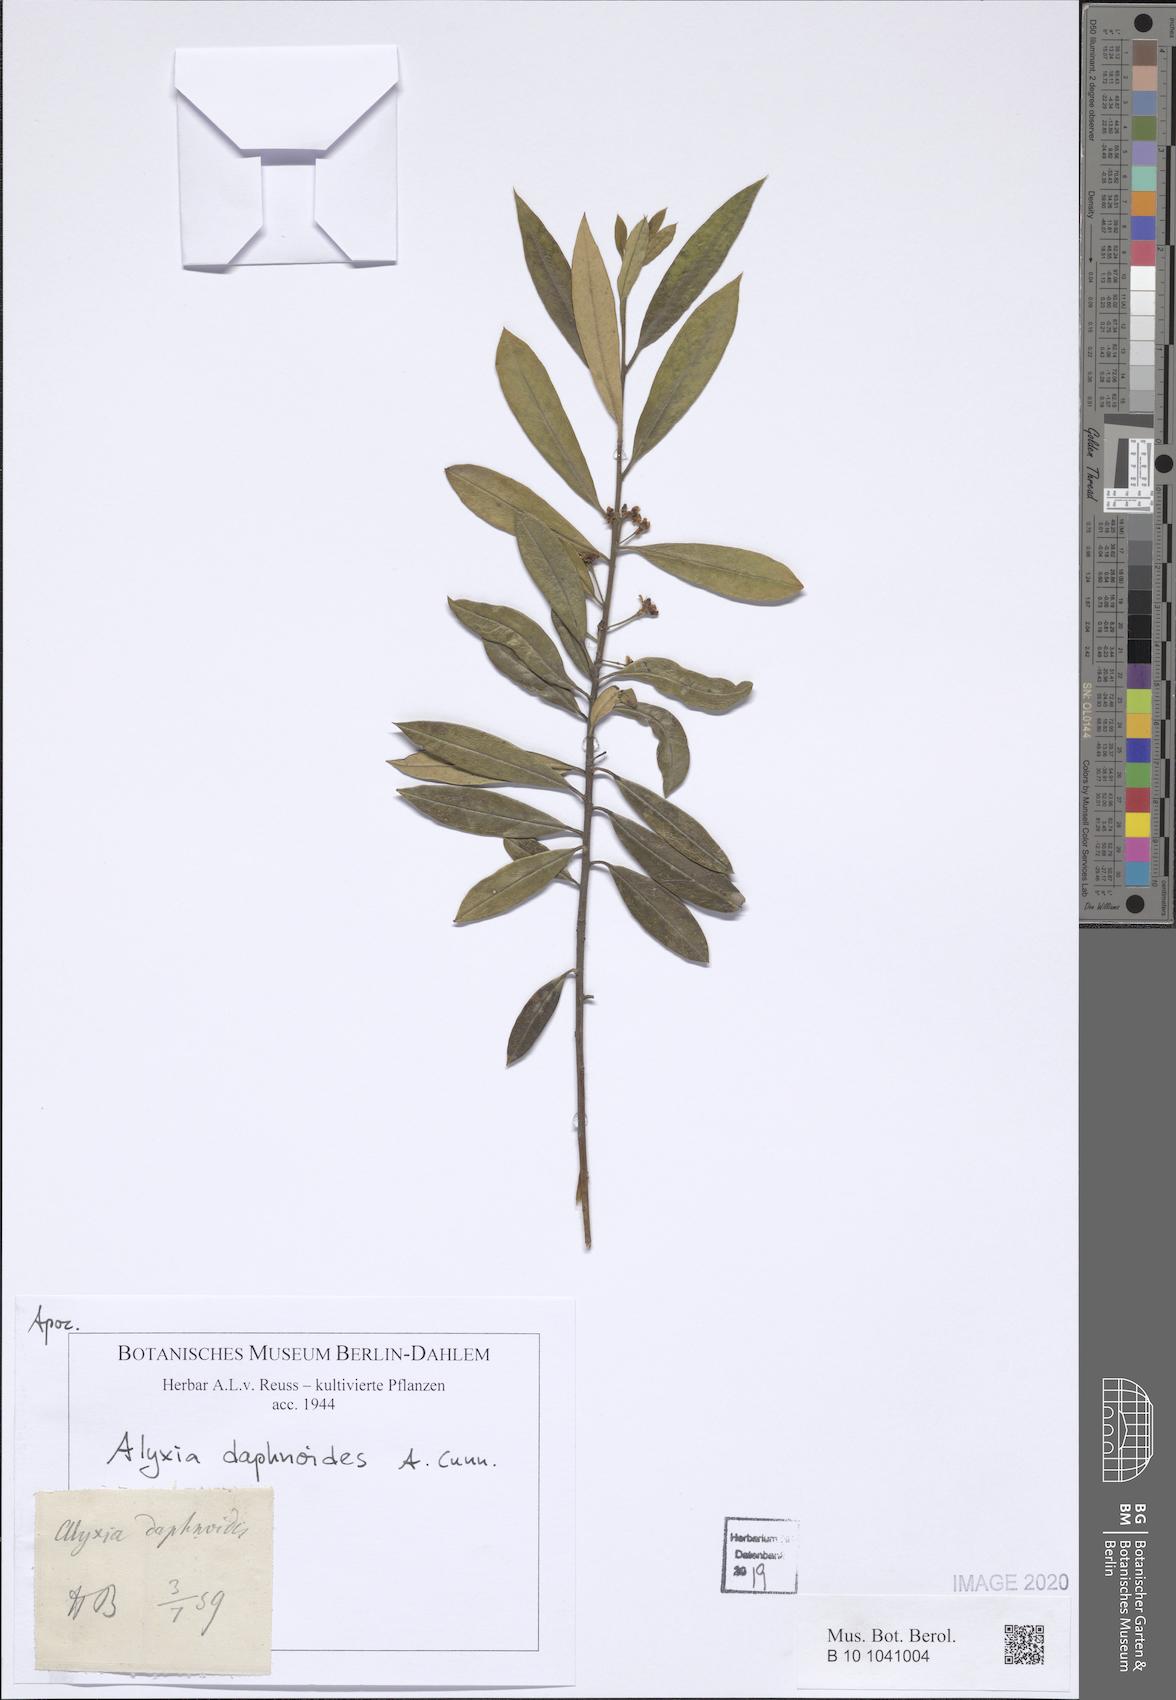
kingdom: Plantae
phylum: Tracheophyta
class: Magnoliopsida
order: Gentianales
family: Apocynaceae
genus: Alyxia
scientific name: Alyxia gynopogon
